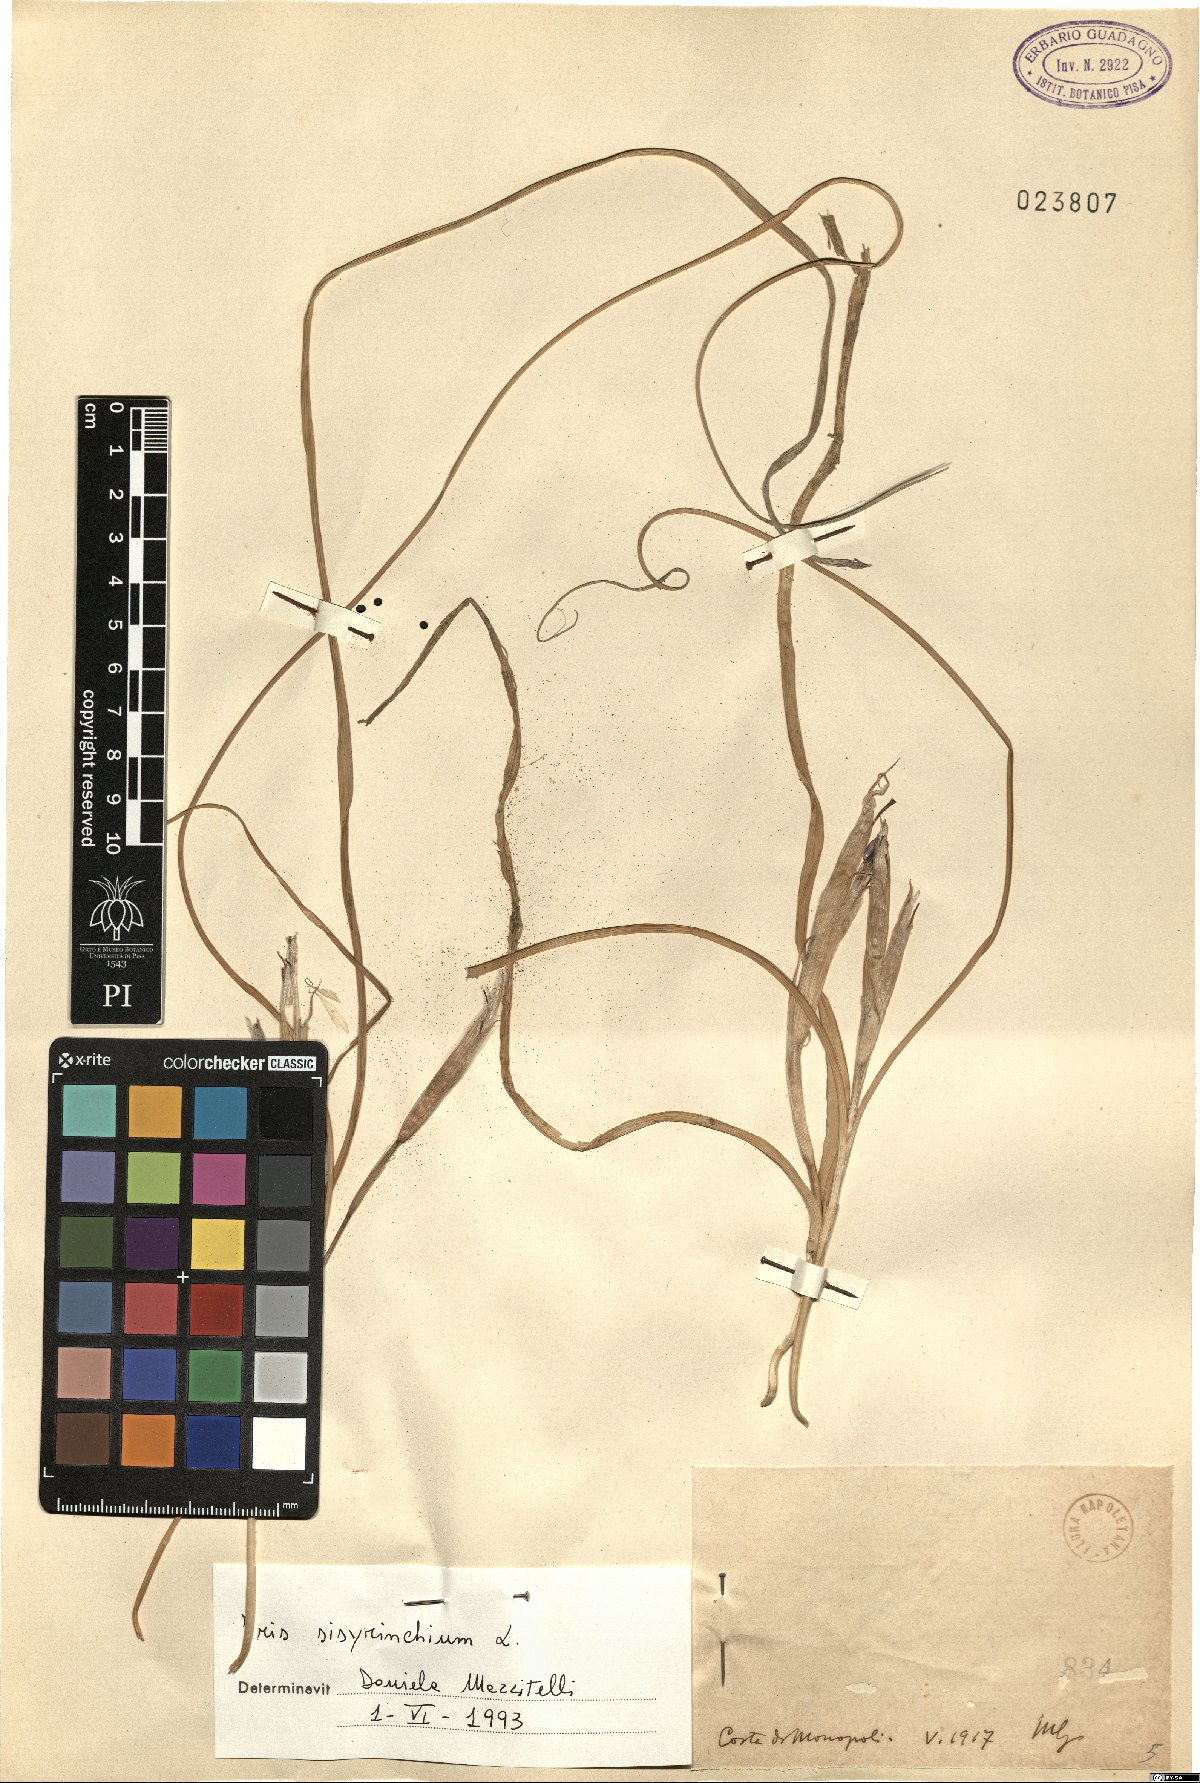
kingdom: Plantae
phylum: Tracheophyta
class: Liliopsida
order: Asparagales
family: Iridaceae
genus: Moraea
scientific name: Moraea sisyrinchium
